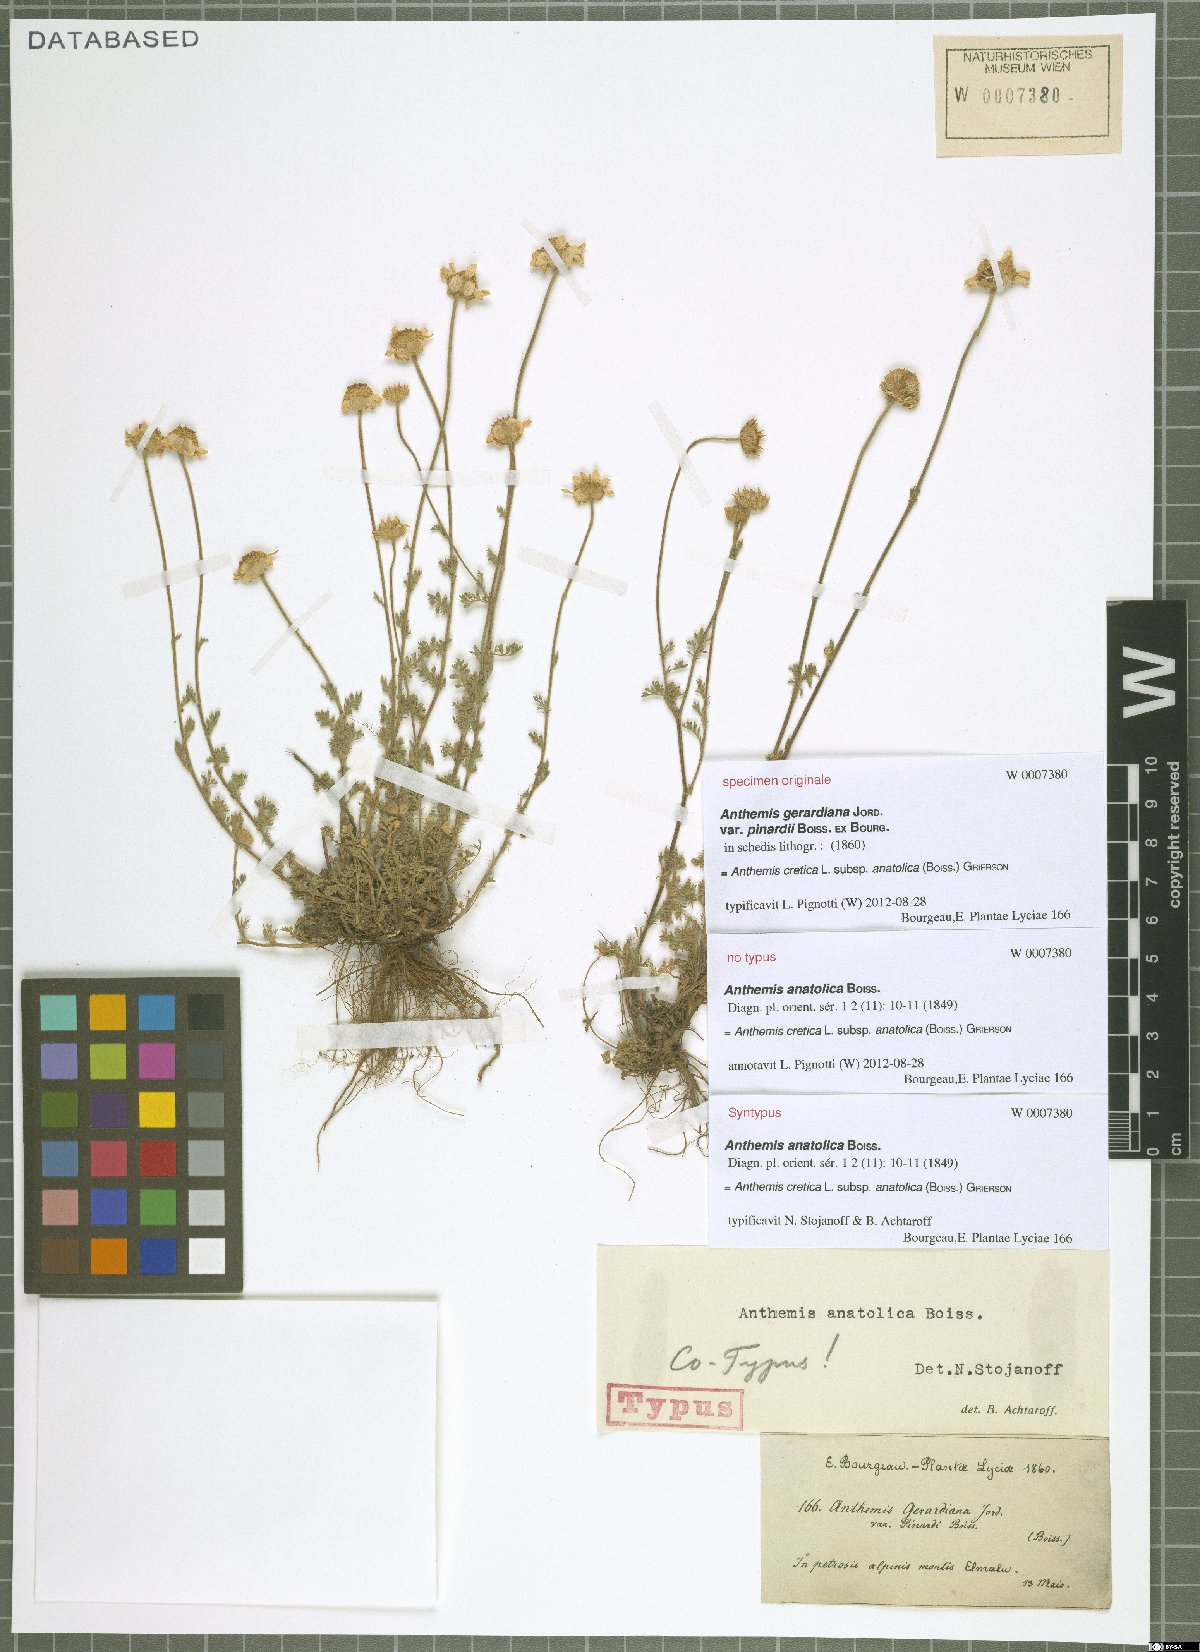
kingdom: Plantae
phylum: Tracheophyta
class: Magnoliopsida
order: Asterales
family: Asteraceae
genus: Anthemis
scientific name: Anthemis cretica
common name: Mountain dog-daisy
